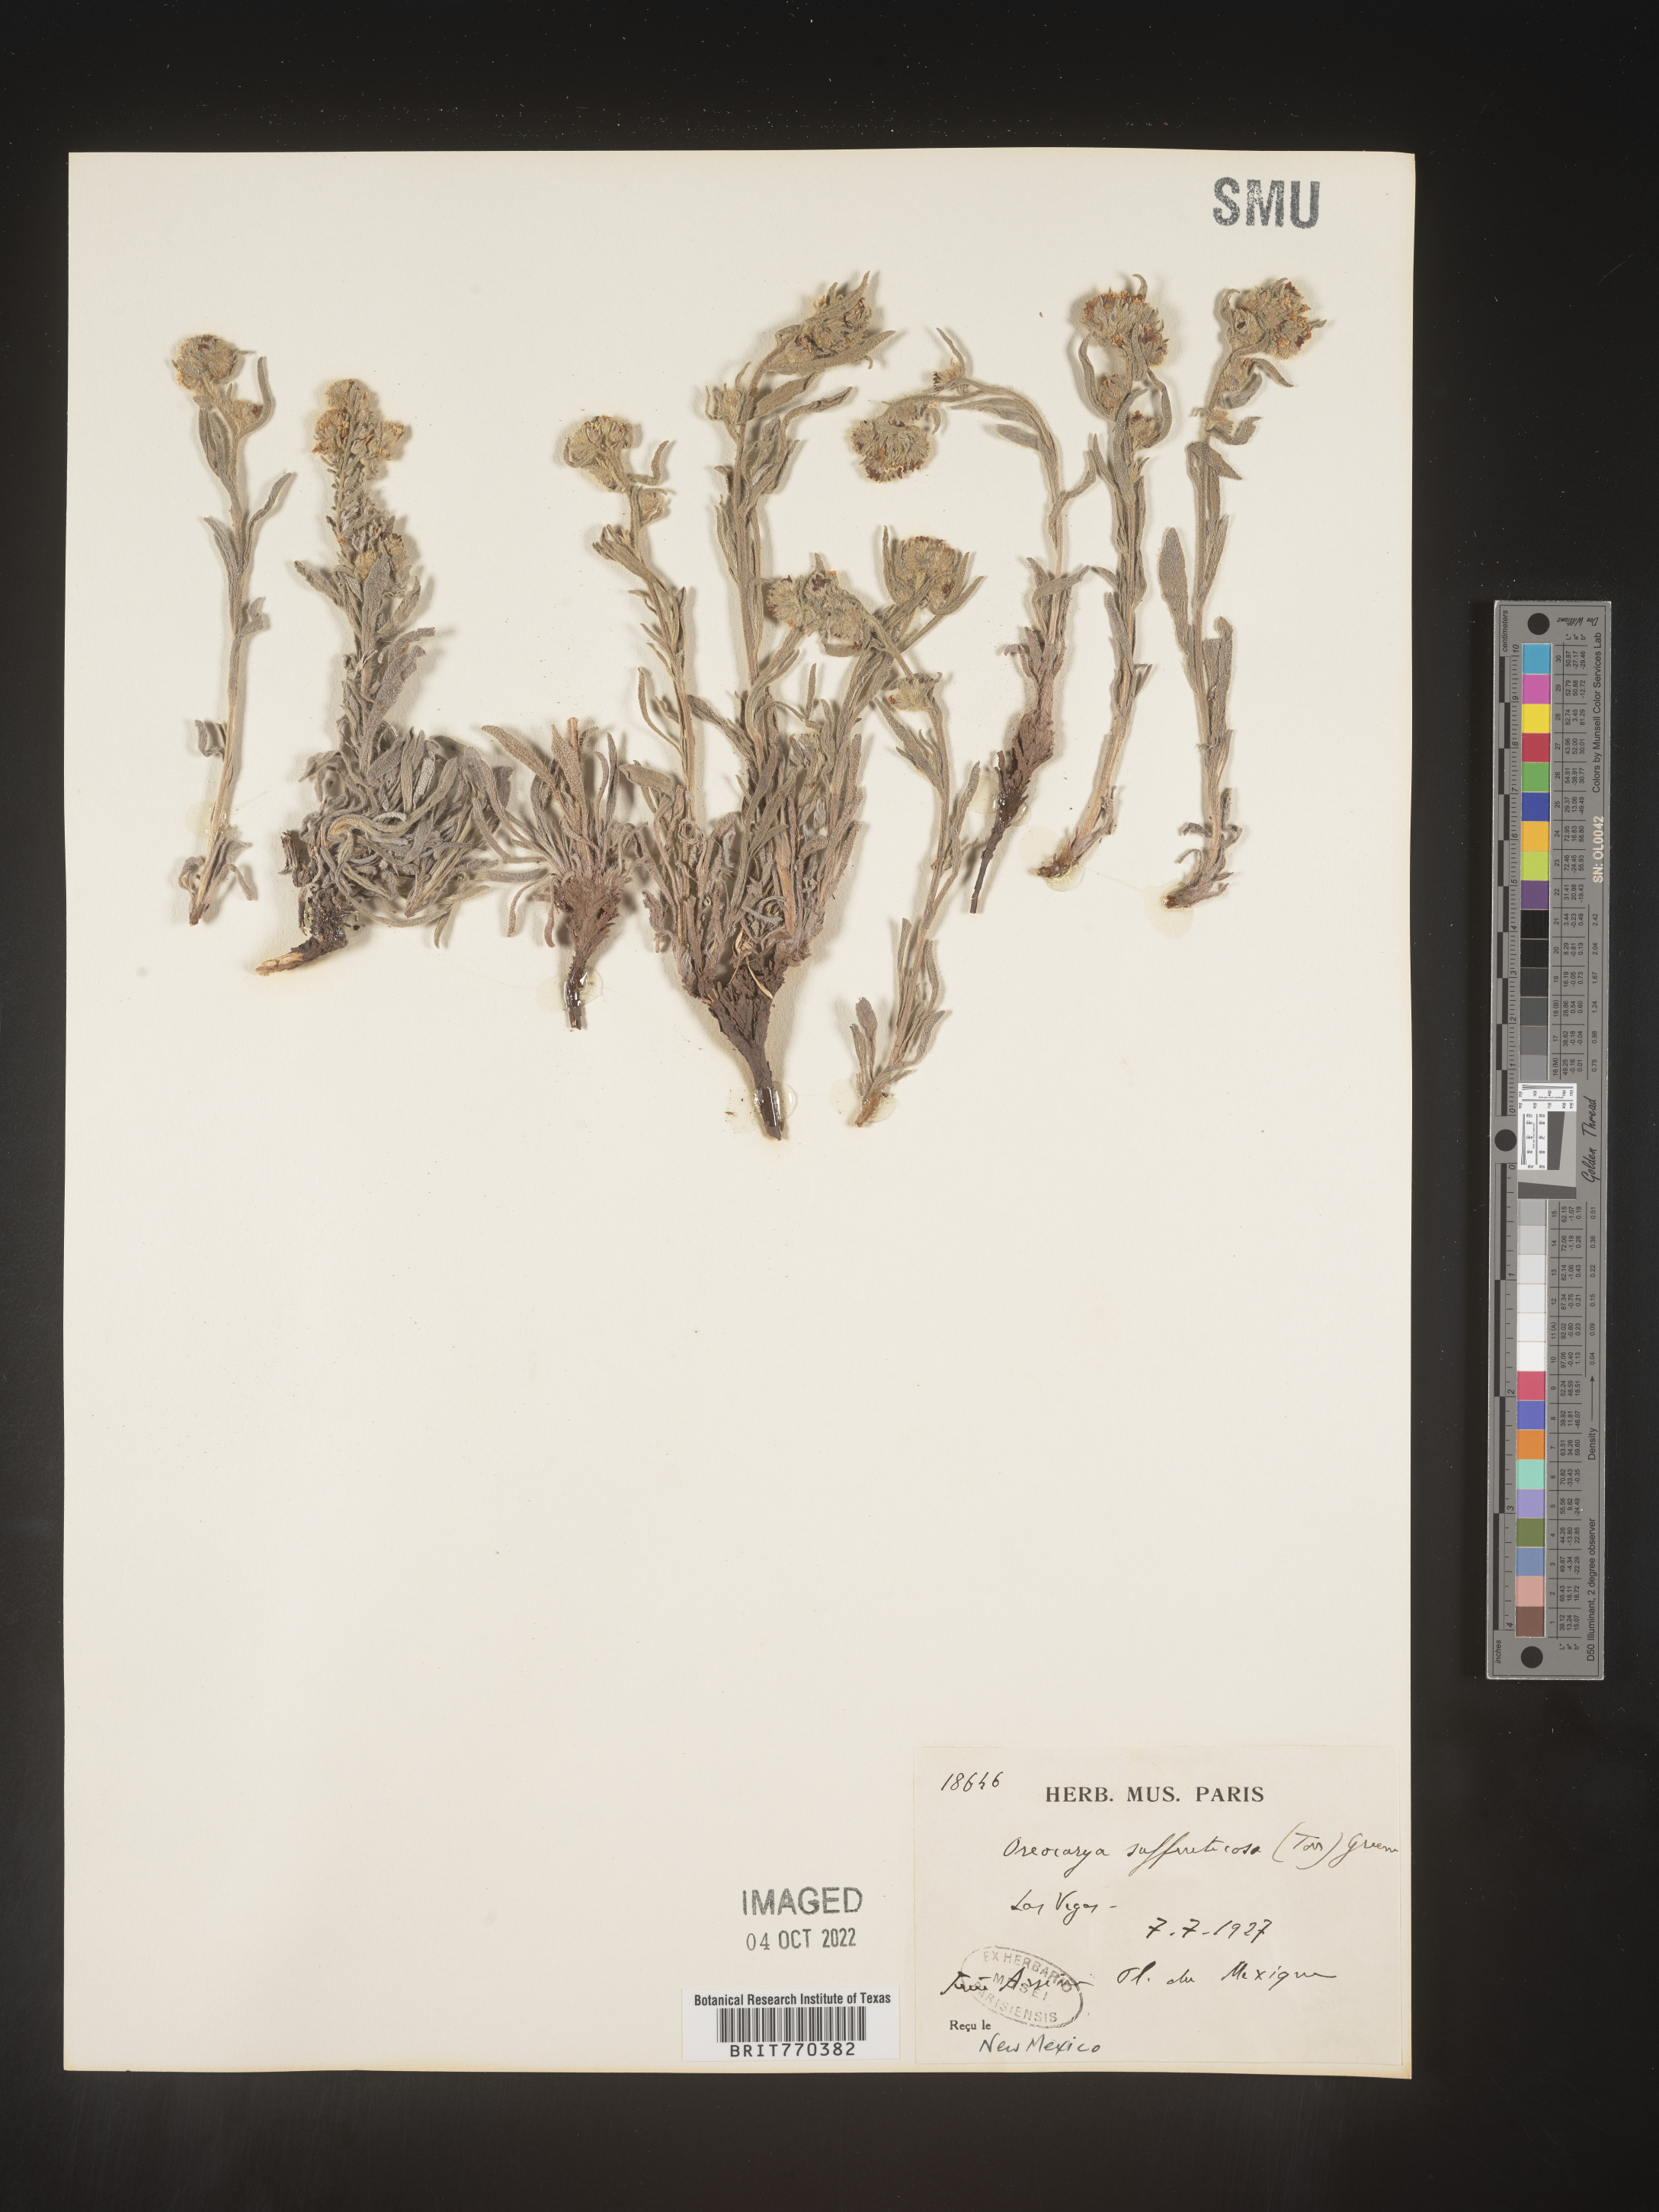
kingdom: Plantae
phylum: Tracheophyta
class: Magnoliopsida
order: Boraginales
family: Boraginaceae
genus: Oreocarya
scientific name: Oreocarya
